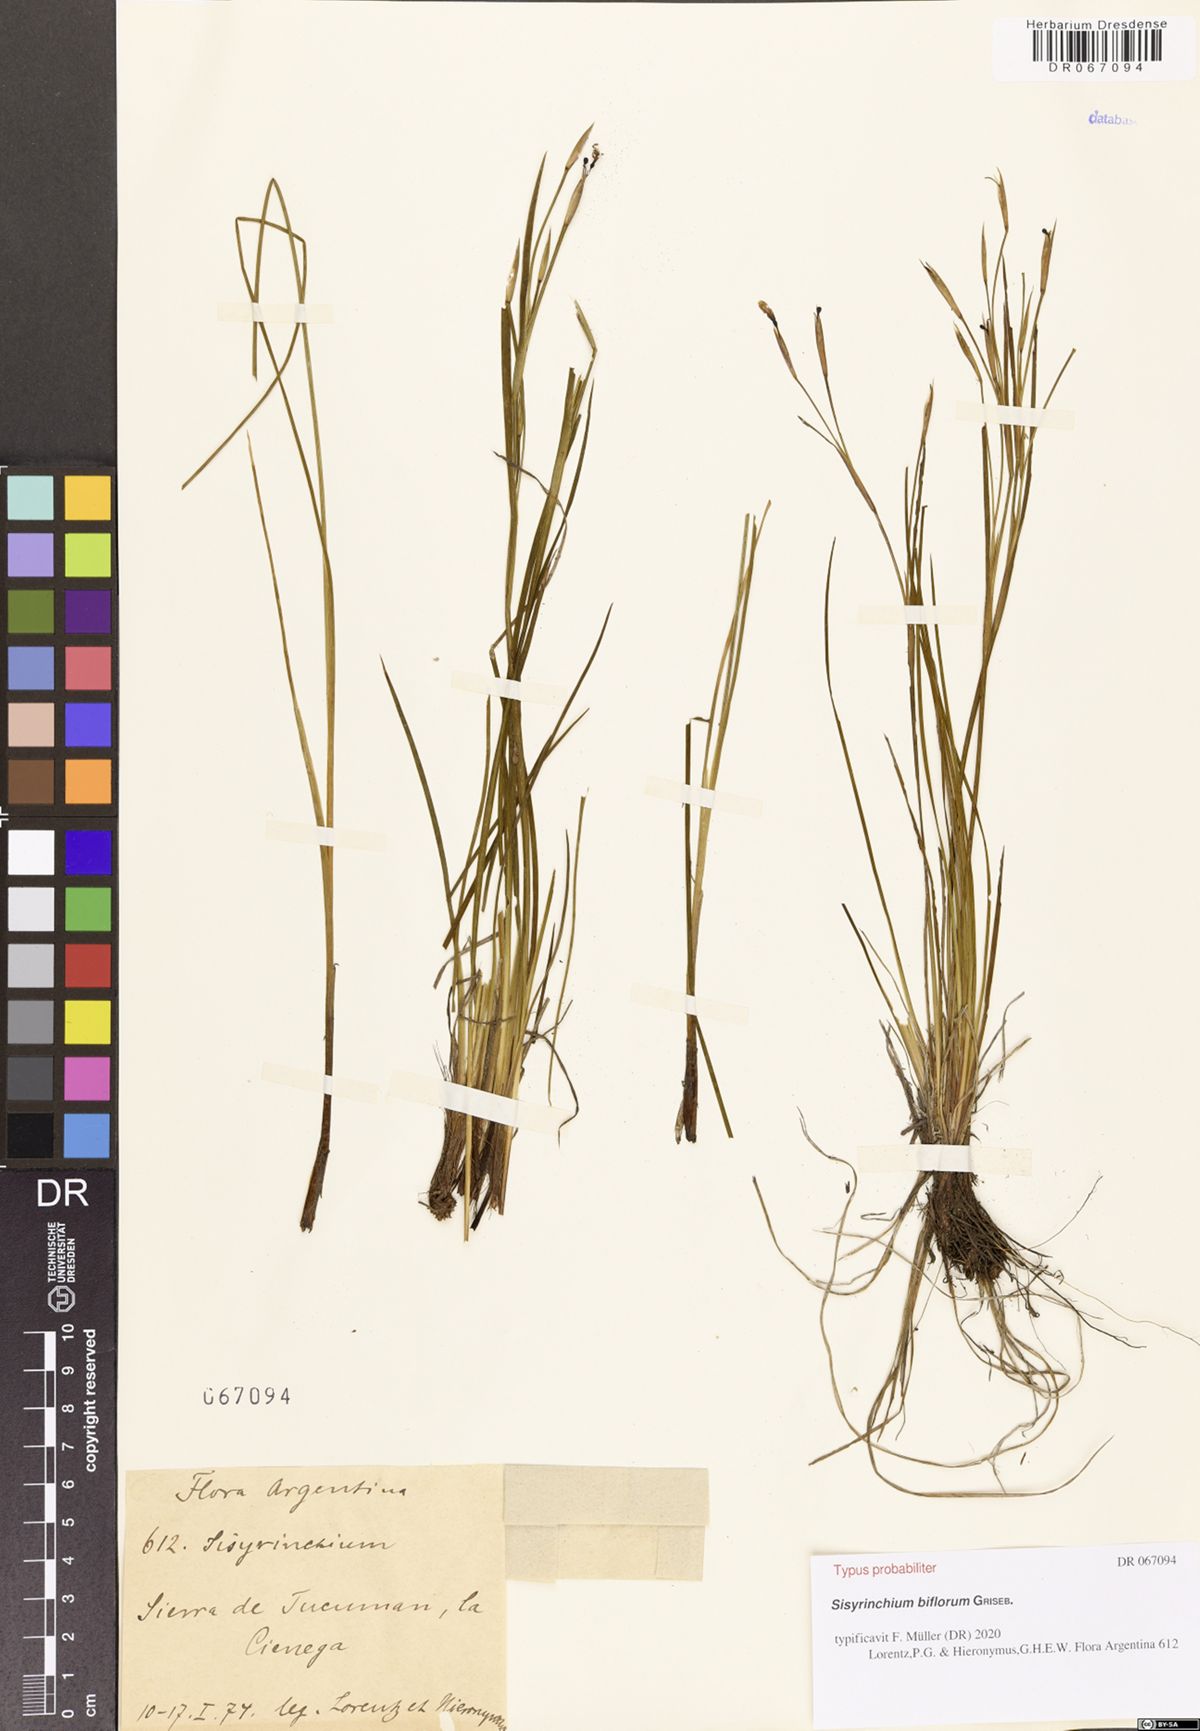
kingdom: Plantae
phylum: Tracheophyta
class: Liliopsida
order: Asparagales
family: Iridaceae
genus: Sisyrinchium
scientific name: Sisyrinchium biflorum
